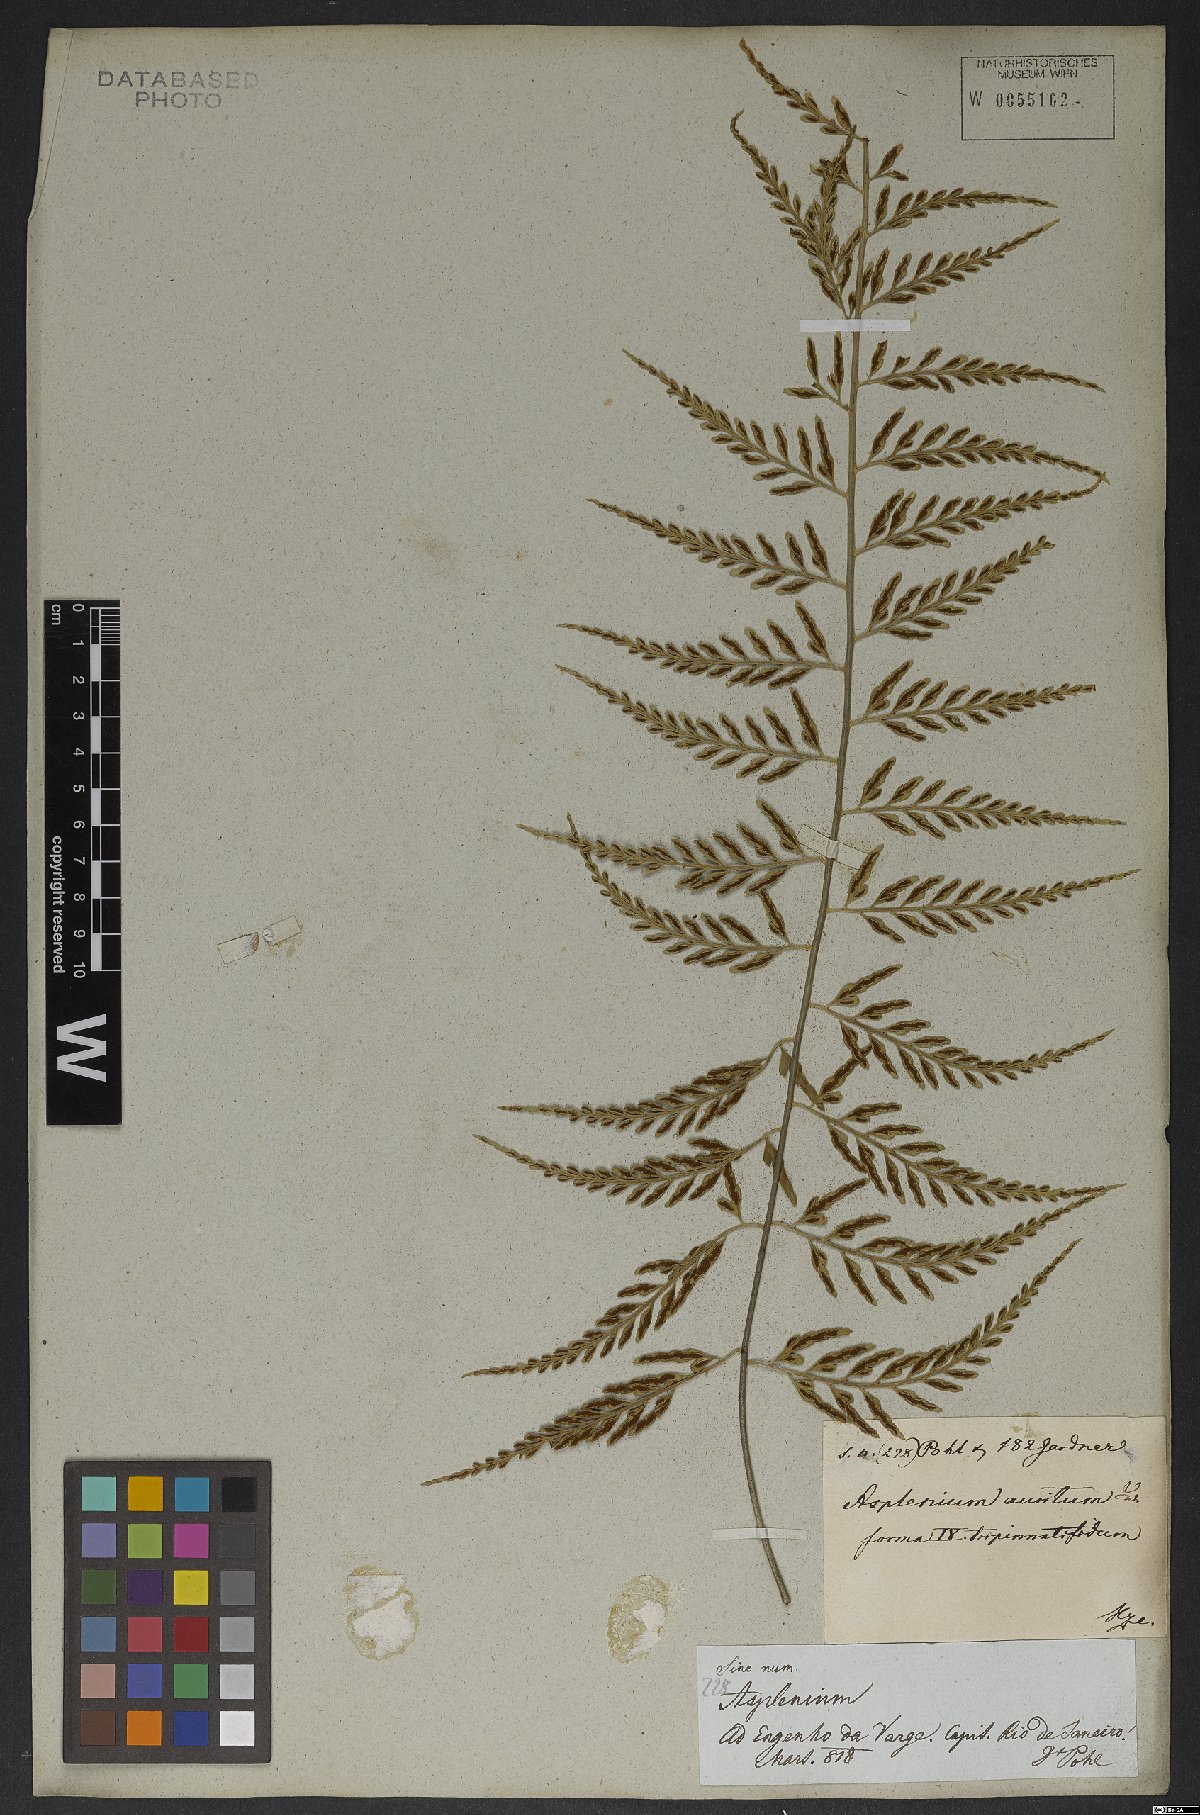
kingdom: Plantae
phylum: Tracheophyta
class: Polypodiopsida
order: Polypodiales
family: Aspleniaceae
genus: Asplenium
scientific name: Asplenium sulcatum
